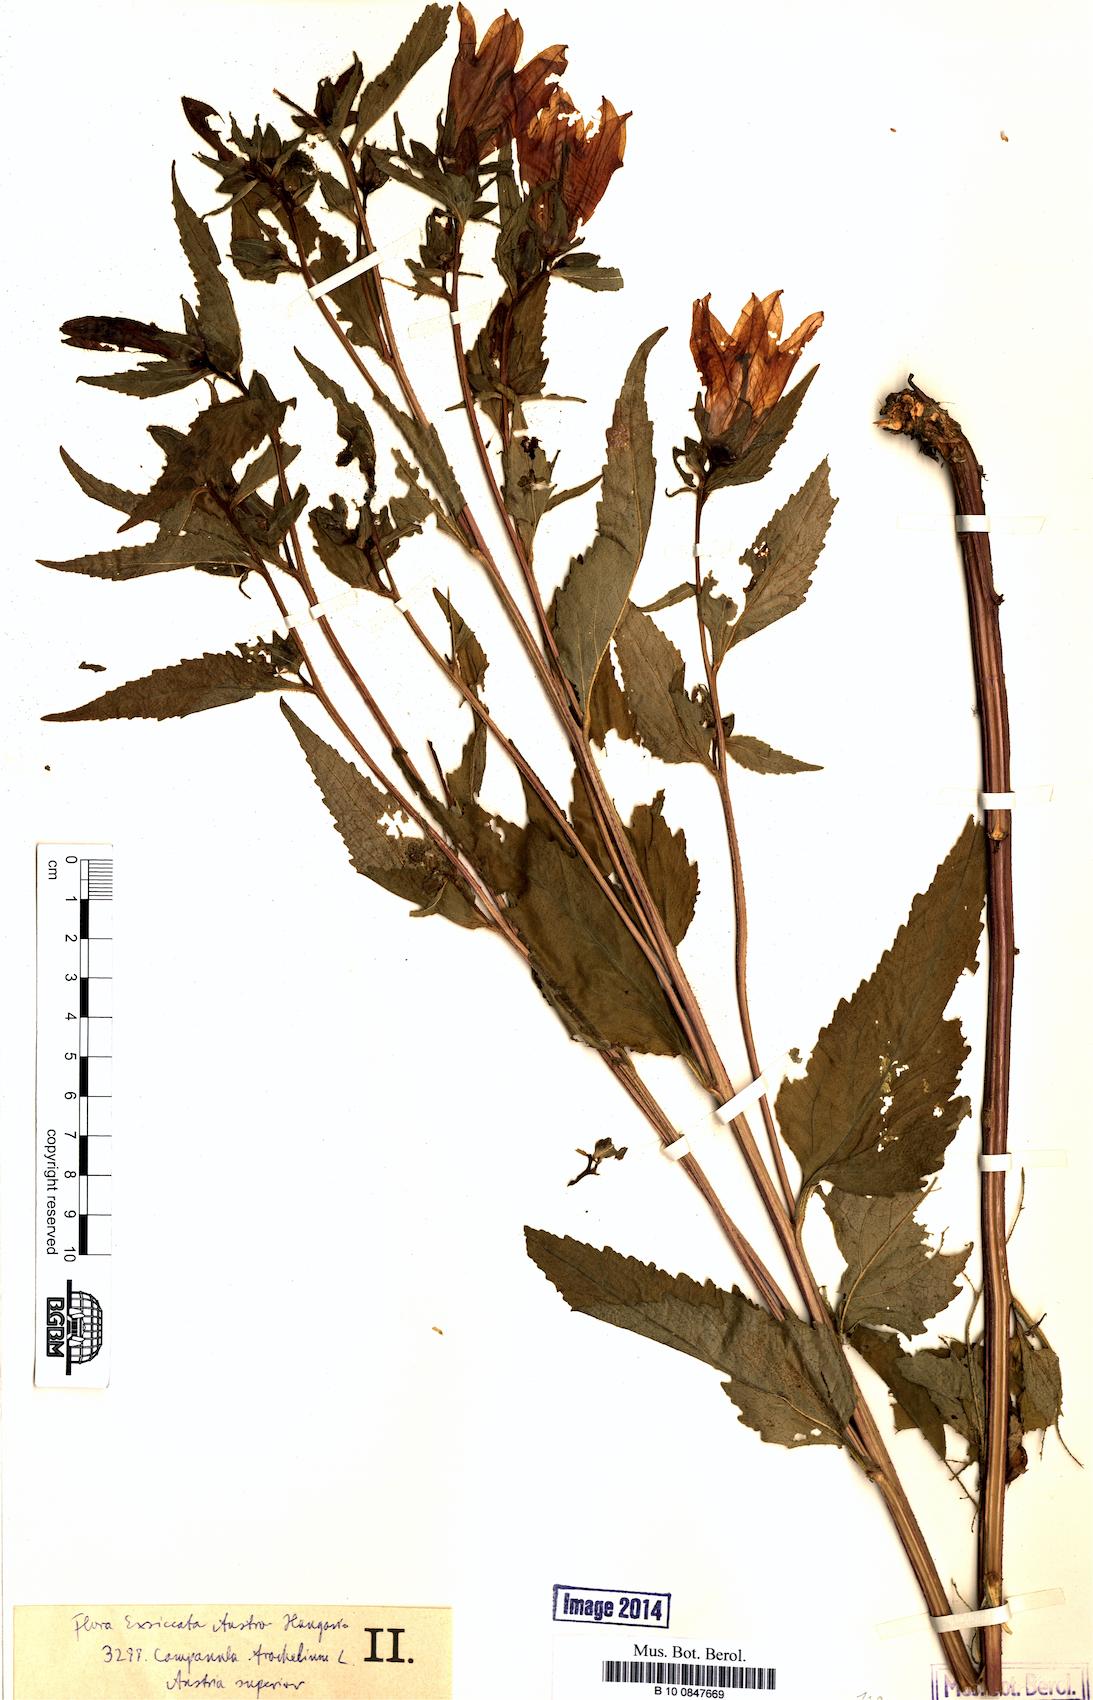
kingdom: Plantae
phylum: Tracheophyta
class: Magnoliopsida
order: Asterales
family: Campanulaceae
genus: Campanula
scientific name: Campanula trachelium
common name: Nettle-leaved bellflower
